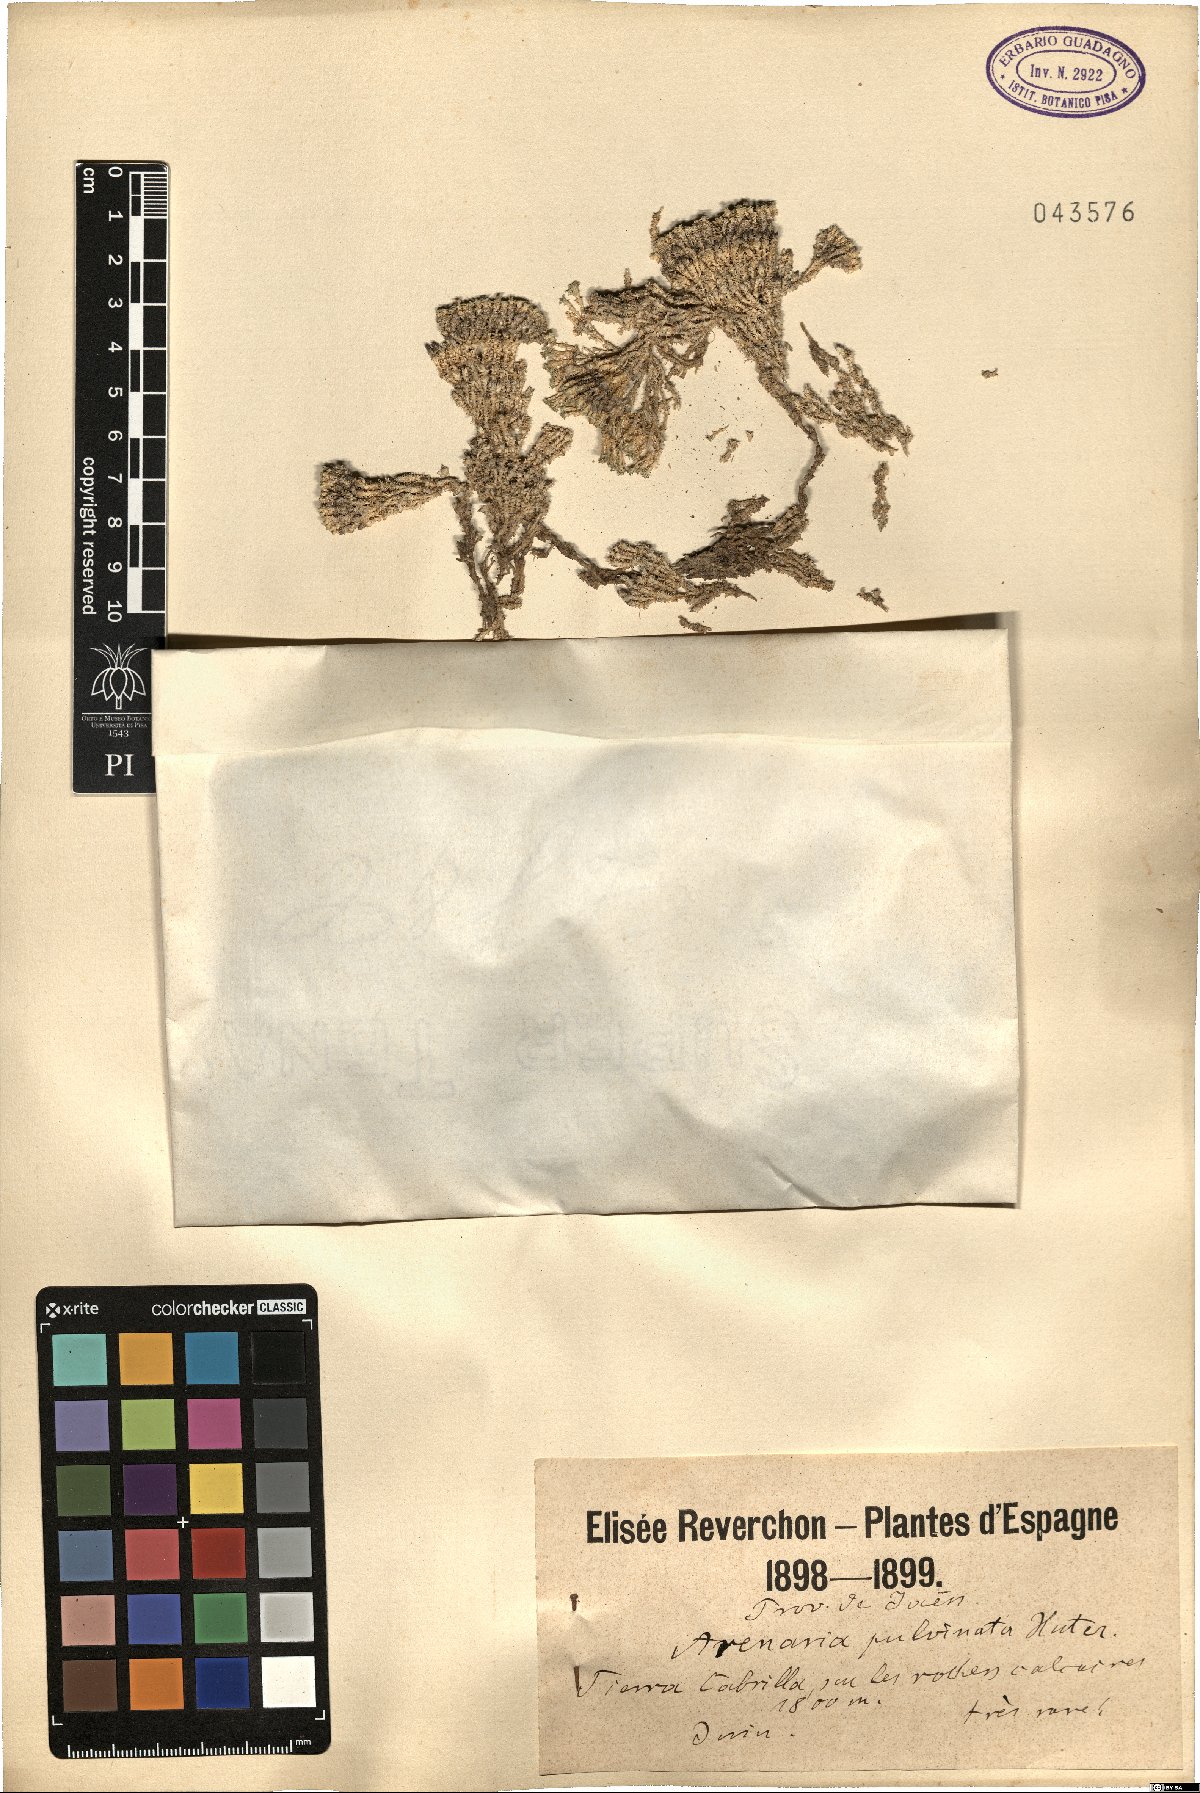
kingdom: Plantae
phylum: Tracheophyta
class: Magnoliopsida
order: Caryophyllales
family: Caryophyllaceae
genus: Arenaria
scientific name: Arenaria alfacariensis
